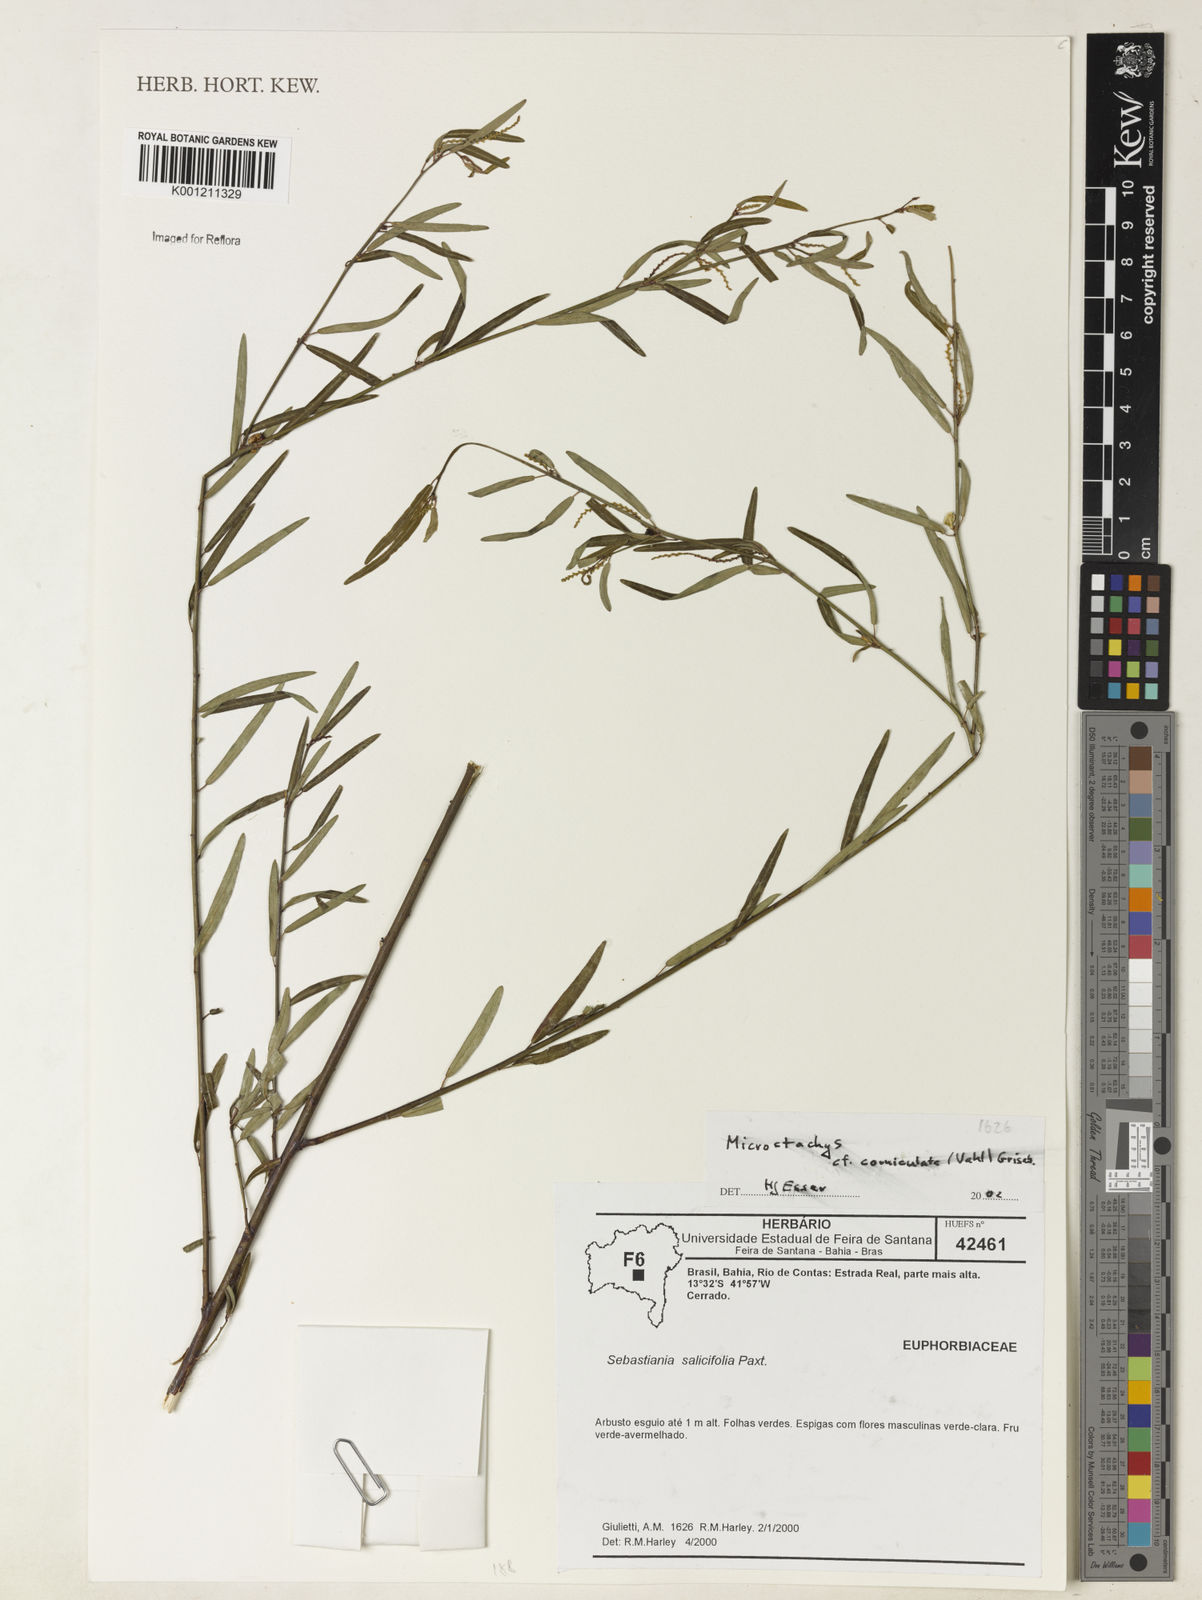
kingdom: Plantae
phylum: Tracheophyta
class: Magnoliopsida
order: Malpighiales
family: Euphorbiaceae
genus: Microstachys
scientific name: Microstachys corniculata
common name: Hato tejas
